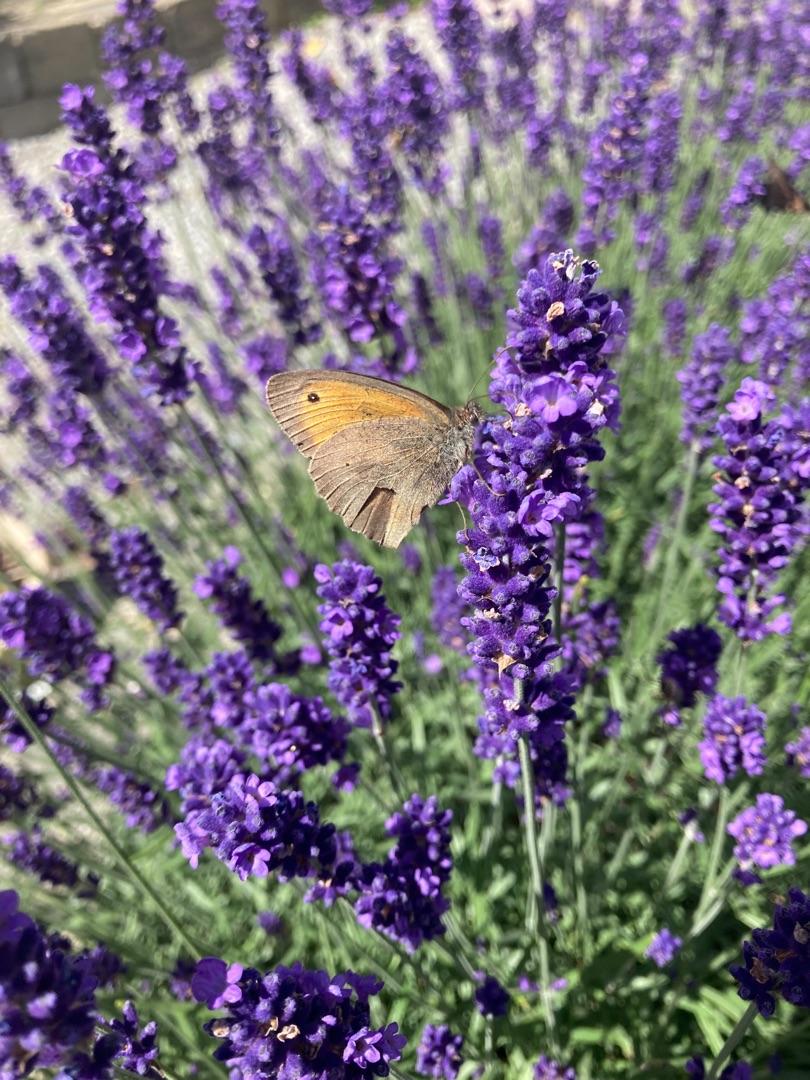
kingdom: Animalia
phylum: Arthropoda
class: Insecta
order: Lepidoptera
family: Nymphalidae
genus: Maniola
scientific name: Maniola jurtina
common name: Græsrandøje
